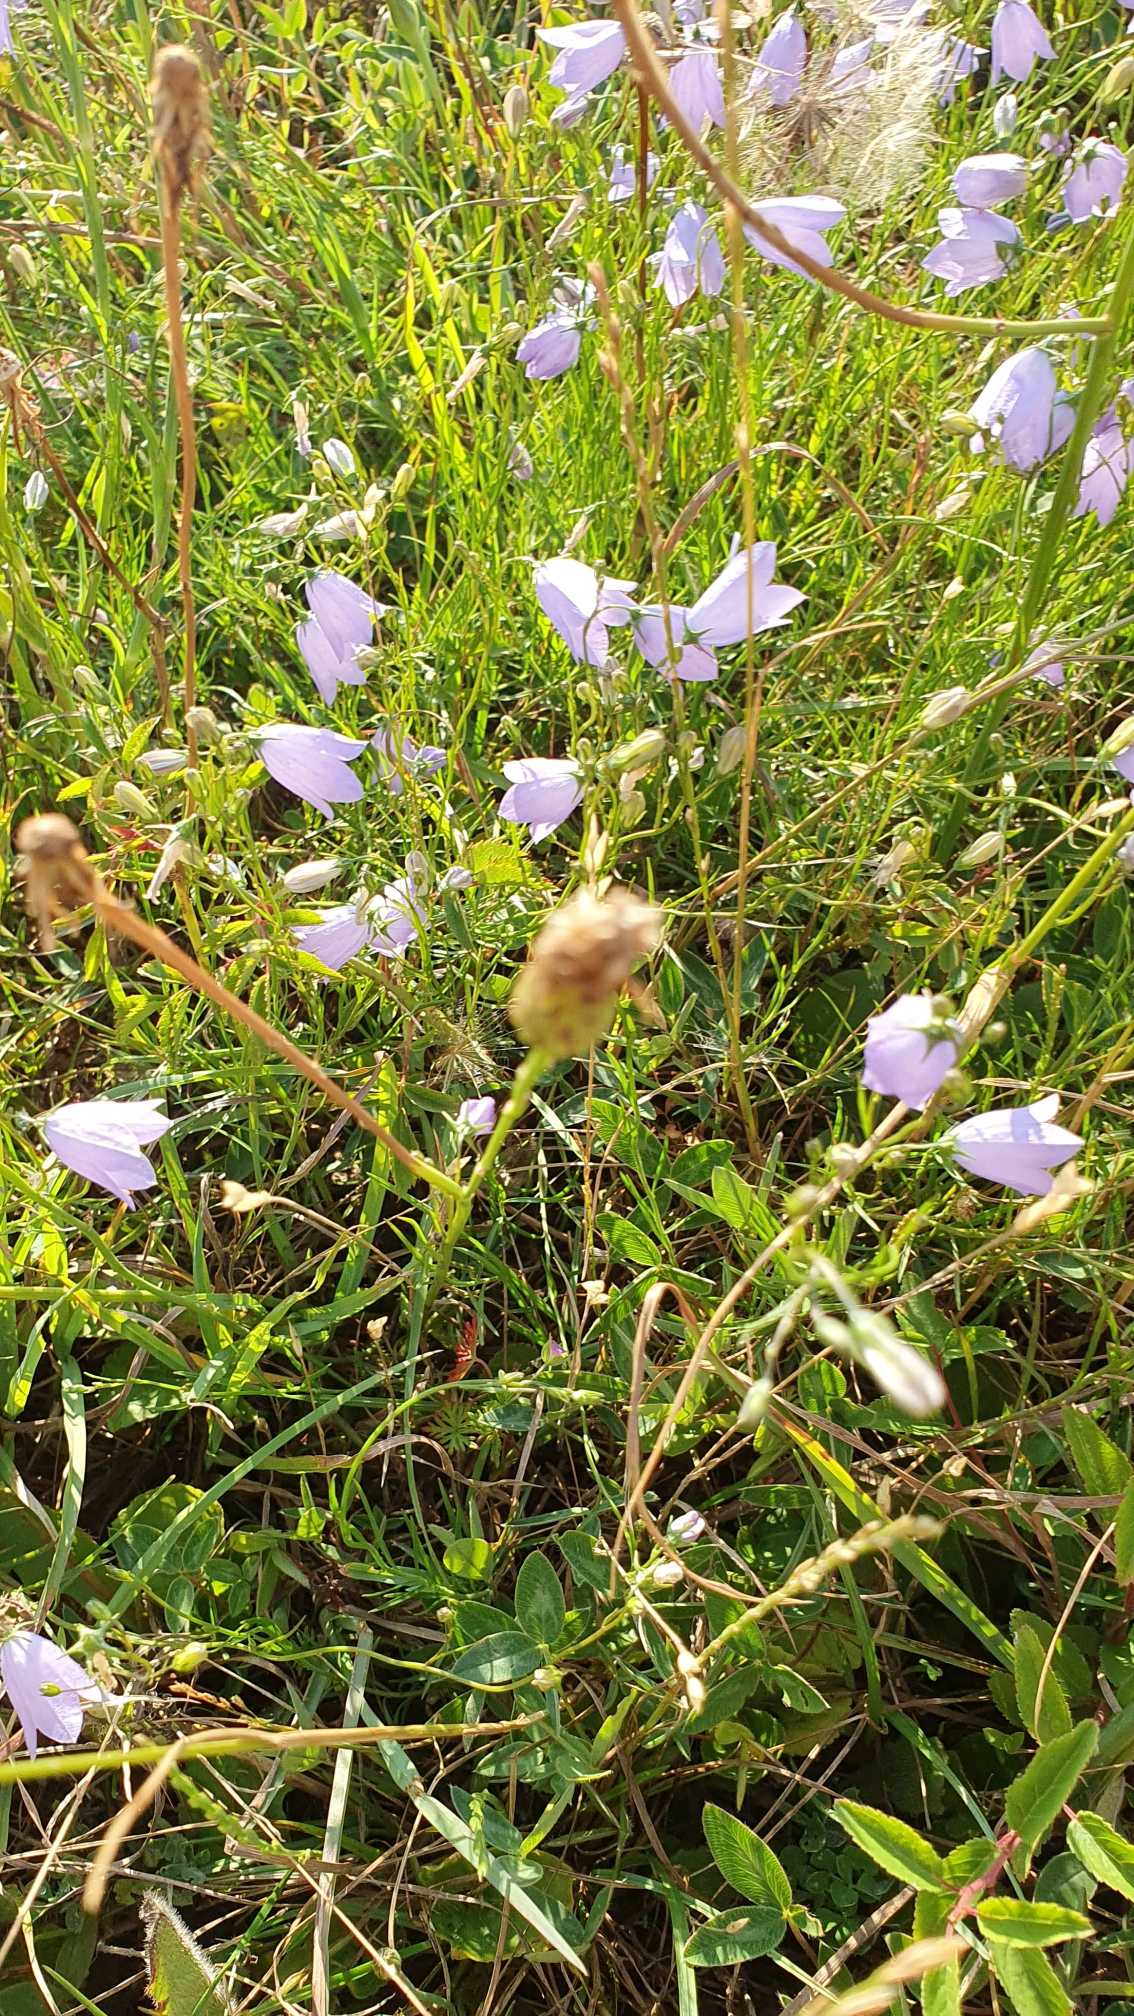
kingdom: Plantae
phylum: Tracheophyta
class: Magnoliopsida
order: Asterales
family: Campanulaceae
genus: Campanula
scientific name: Campanula rotundifolia
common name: Liden klokke
